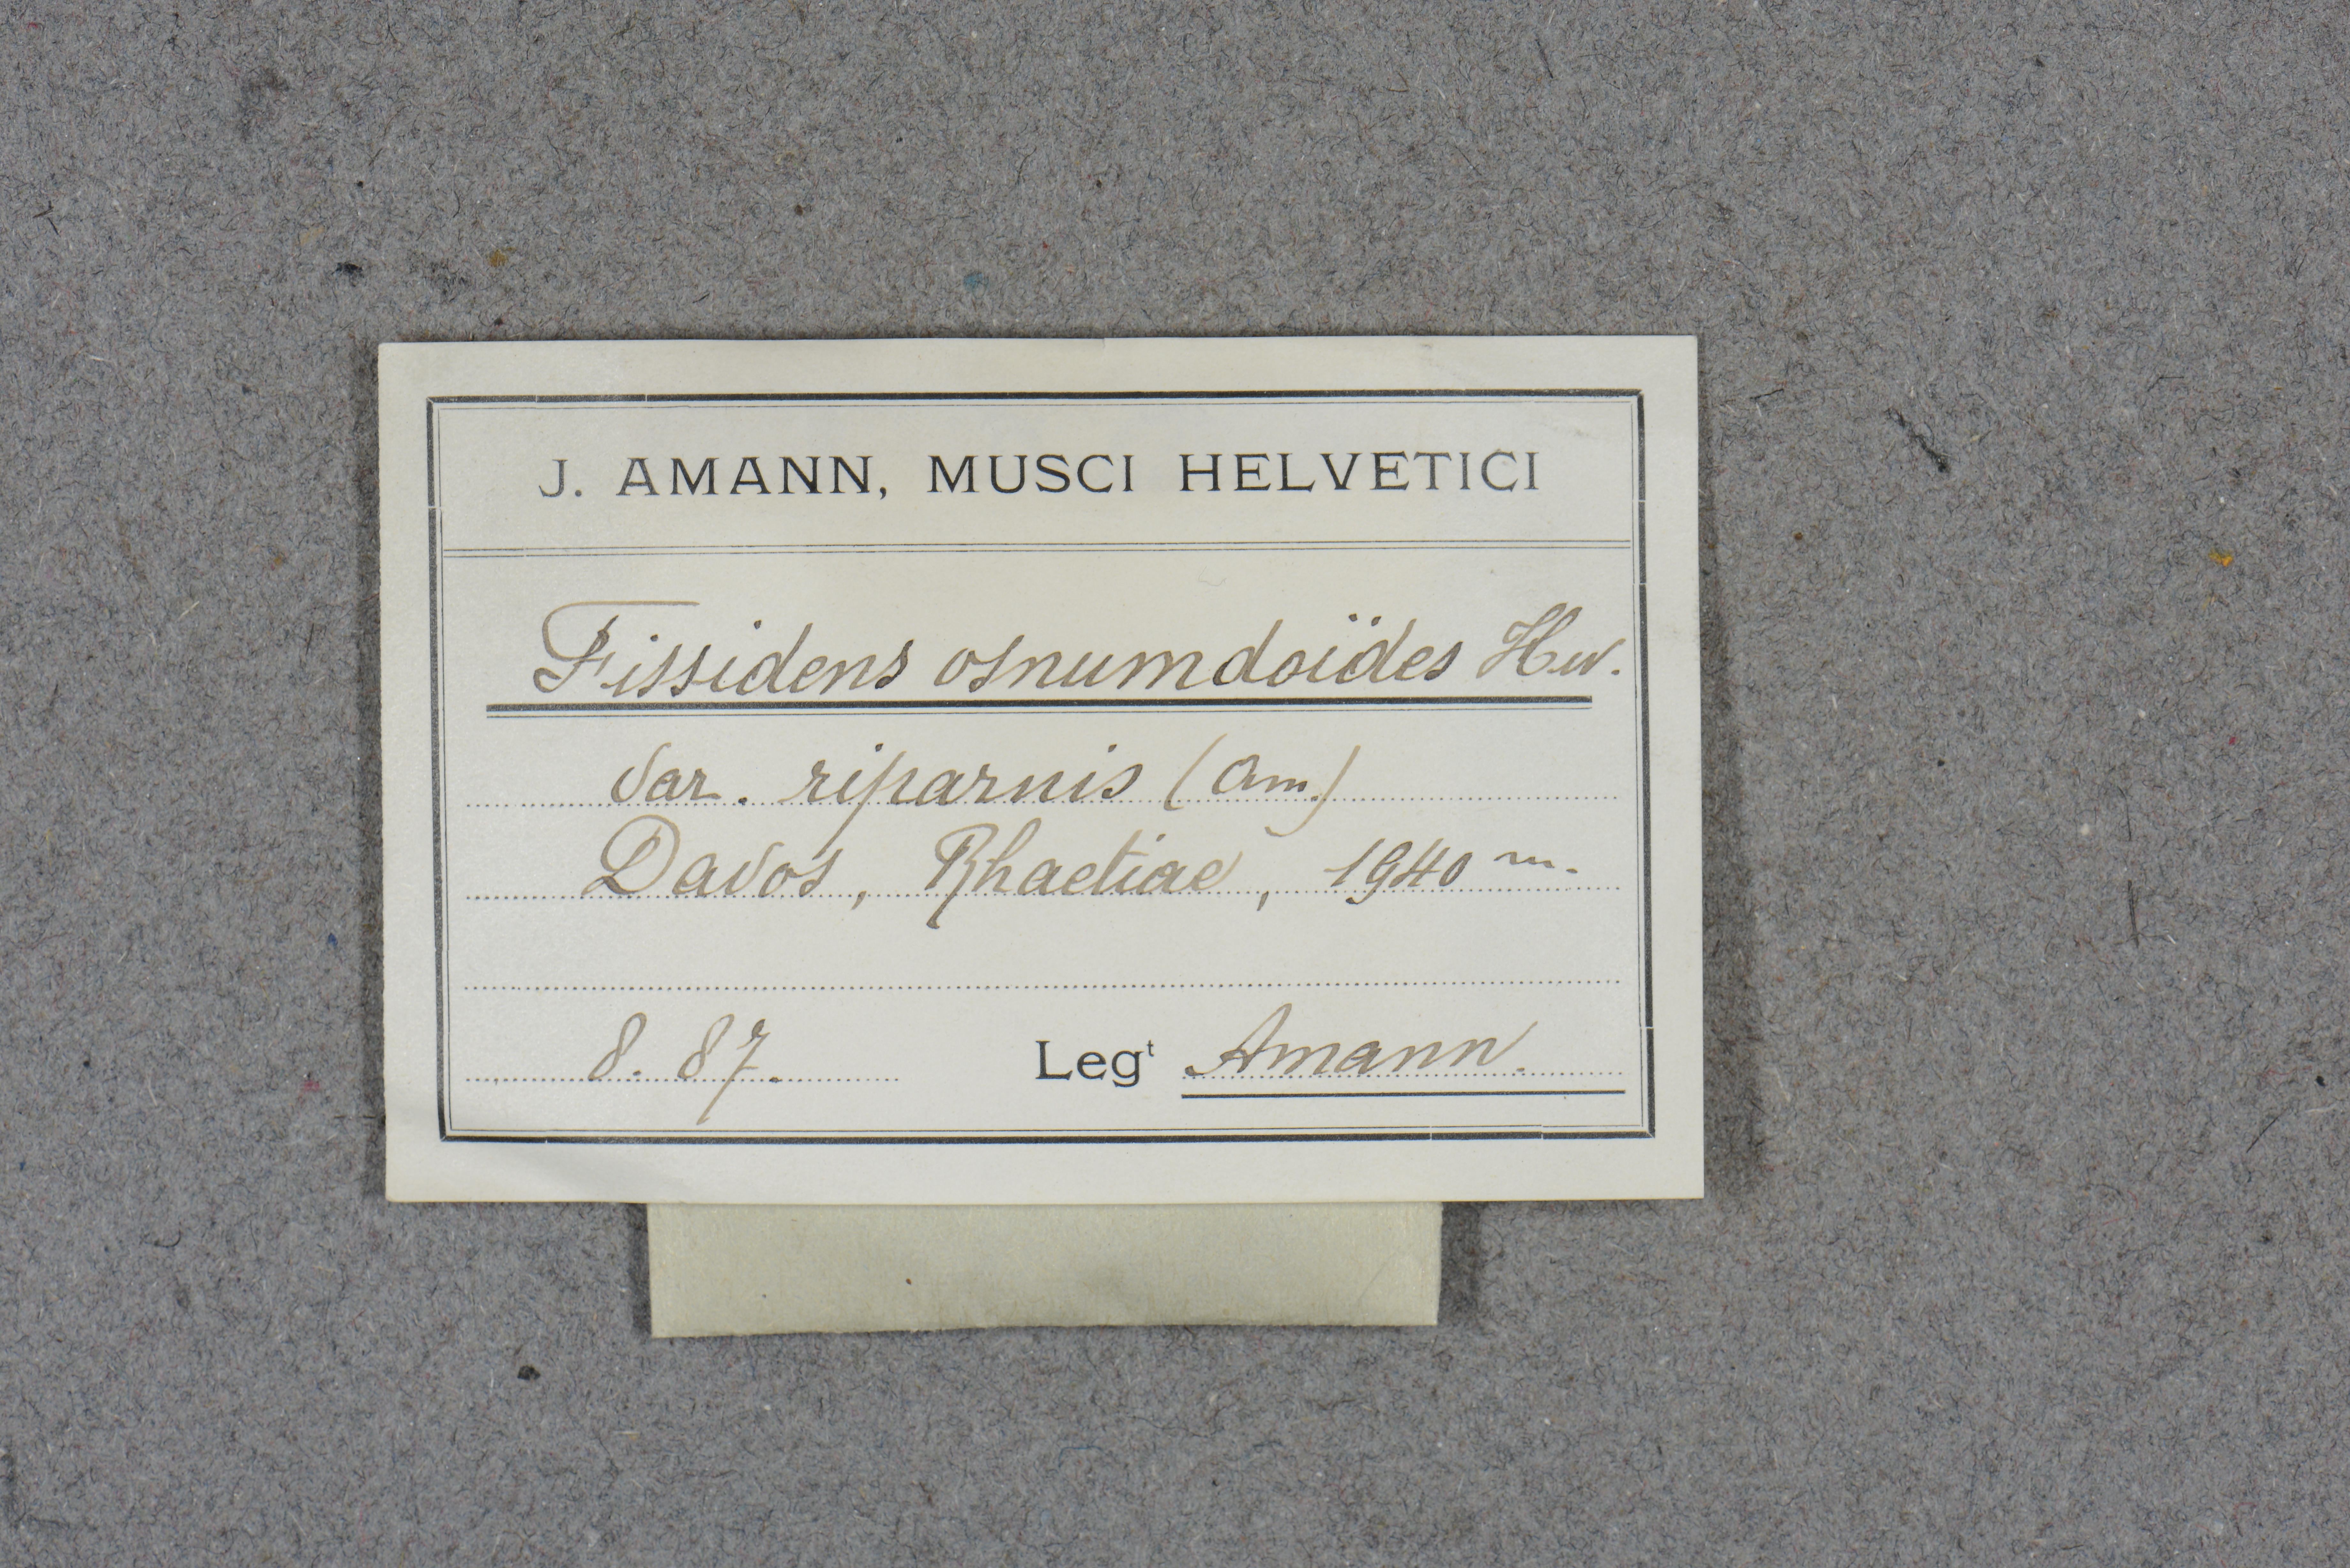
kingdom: Plantae
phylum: Bryophyta
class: Bryopsida
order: Dicranales
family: Fissidentaceae
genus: Fissidens
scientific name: Fissidens osmundoides
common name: Purple-stalked pocket moss
